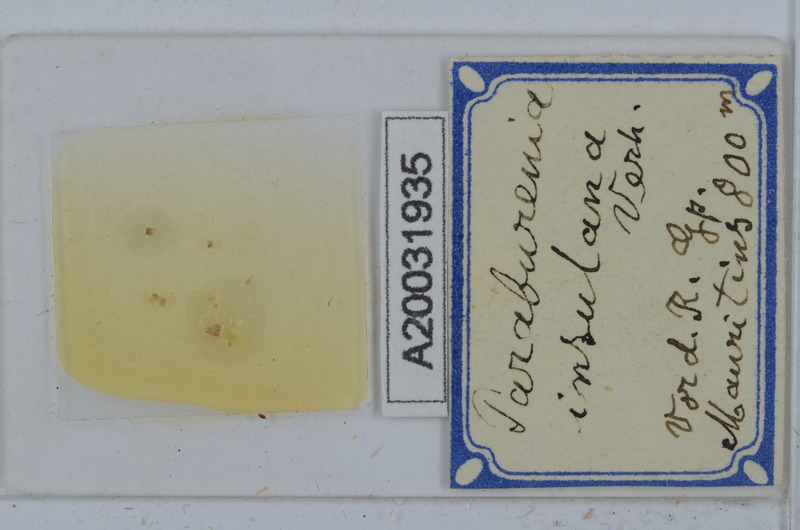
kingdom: Animalia
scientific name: Animalia
